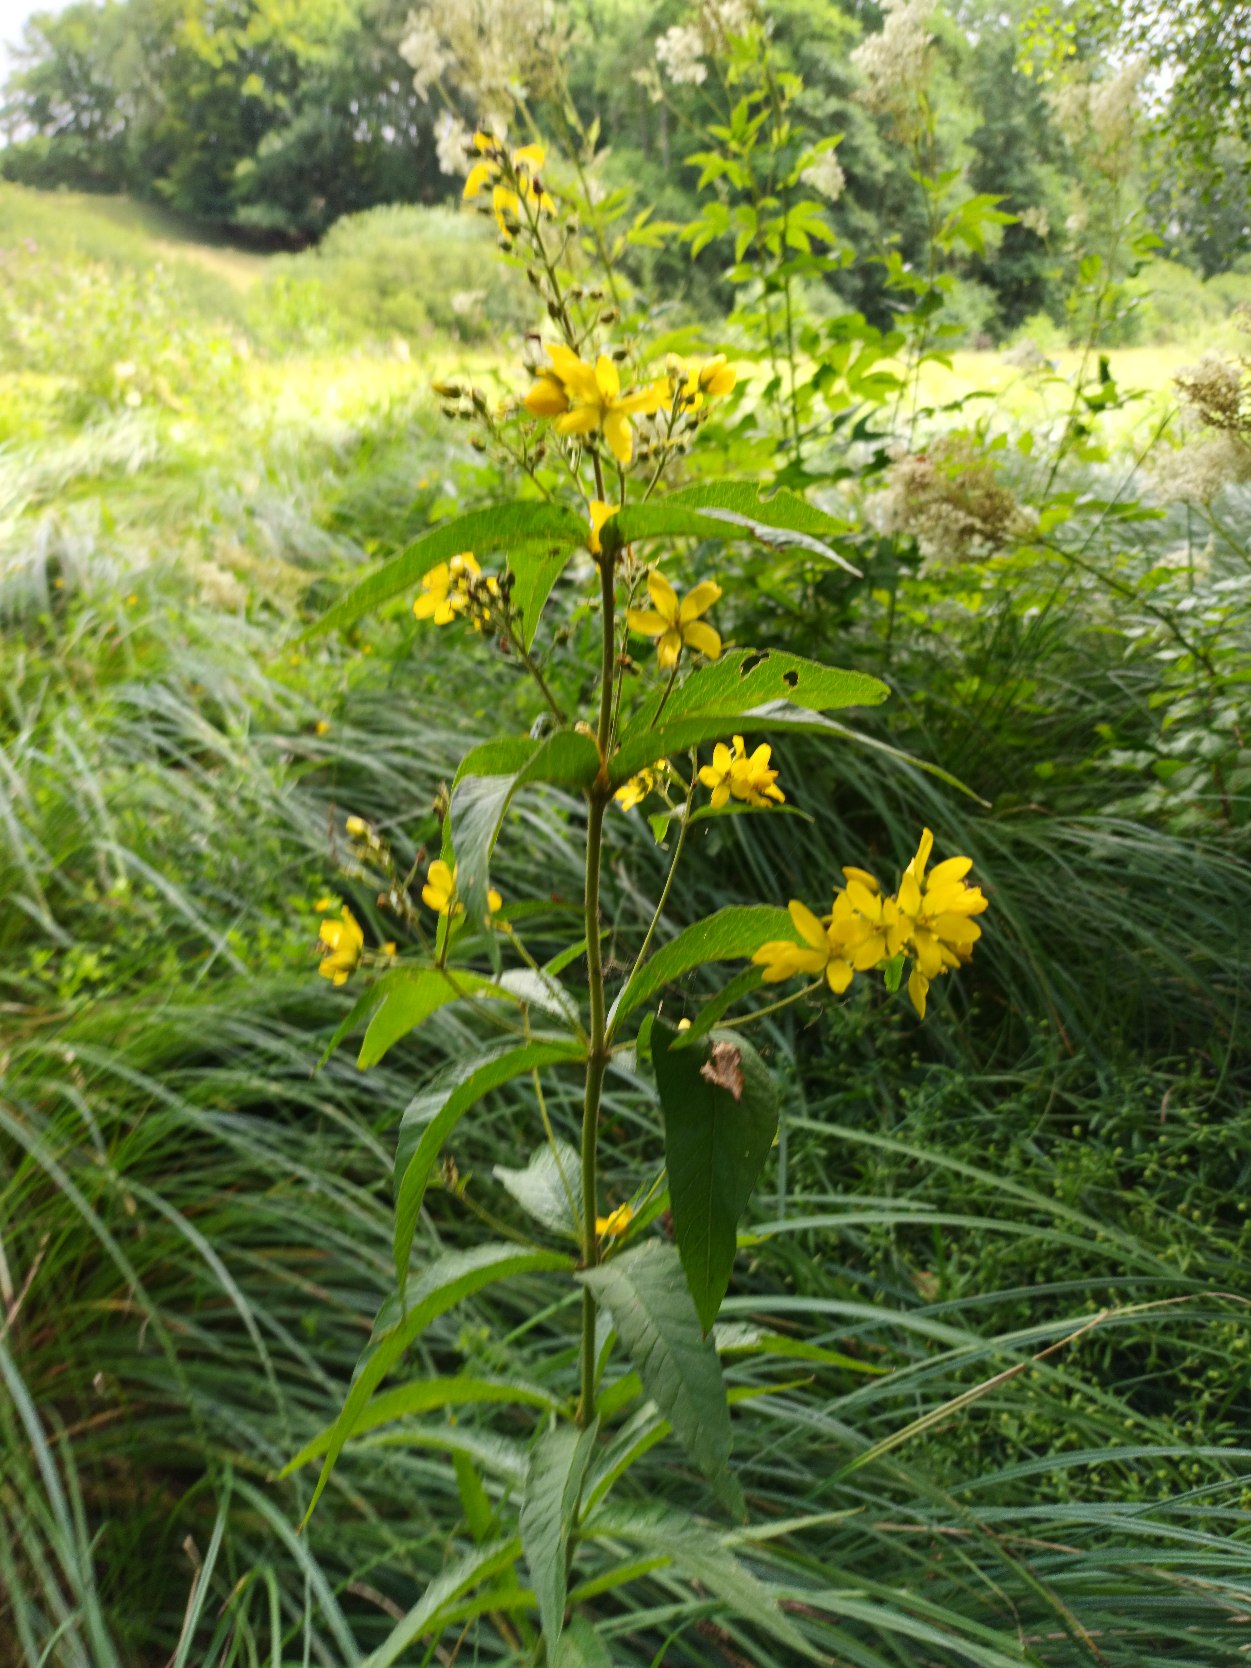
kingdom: Plantae
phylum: Tracheophyta
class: Magnoliopsida
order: Ericales
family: Primulaceae
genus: Lysimachia
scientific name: Lysimachia vulgaris
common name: Almindelig fredløs
